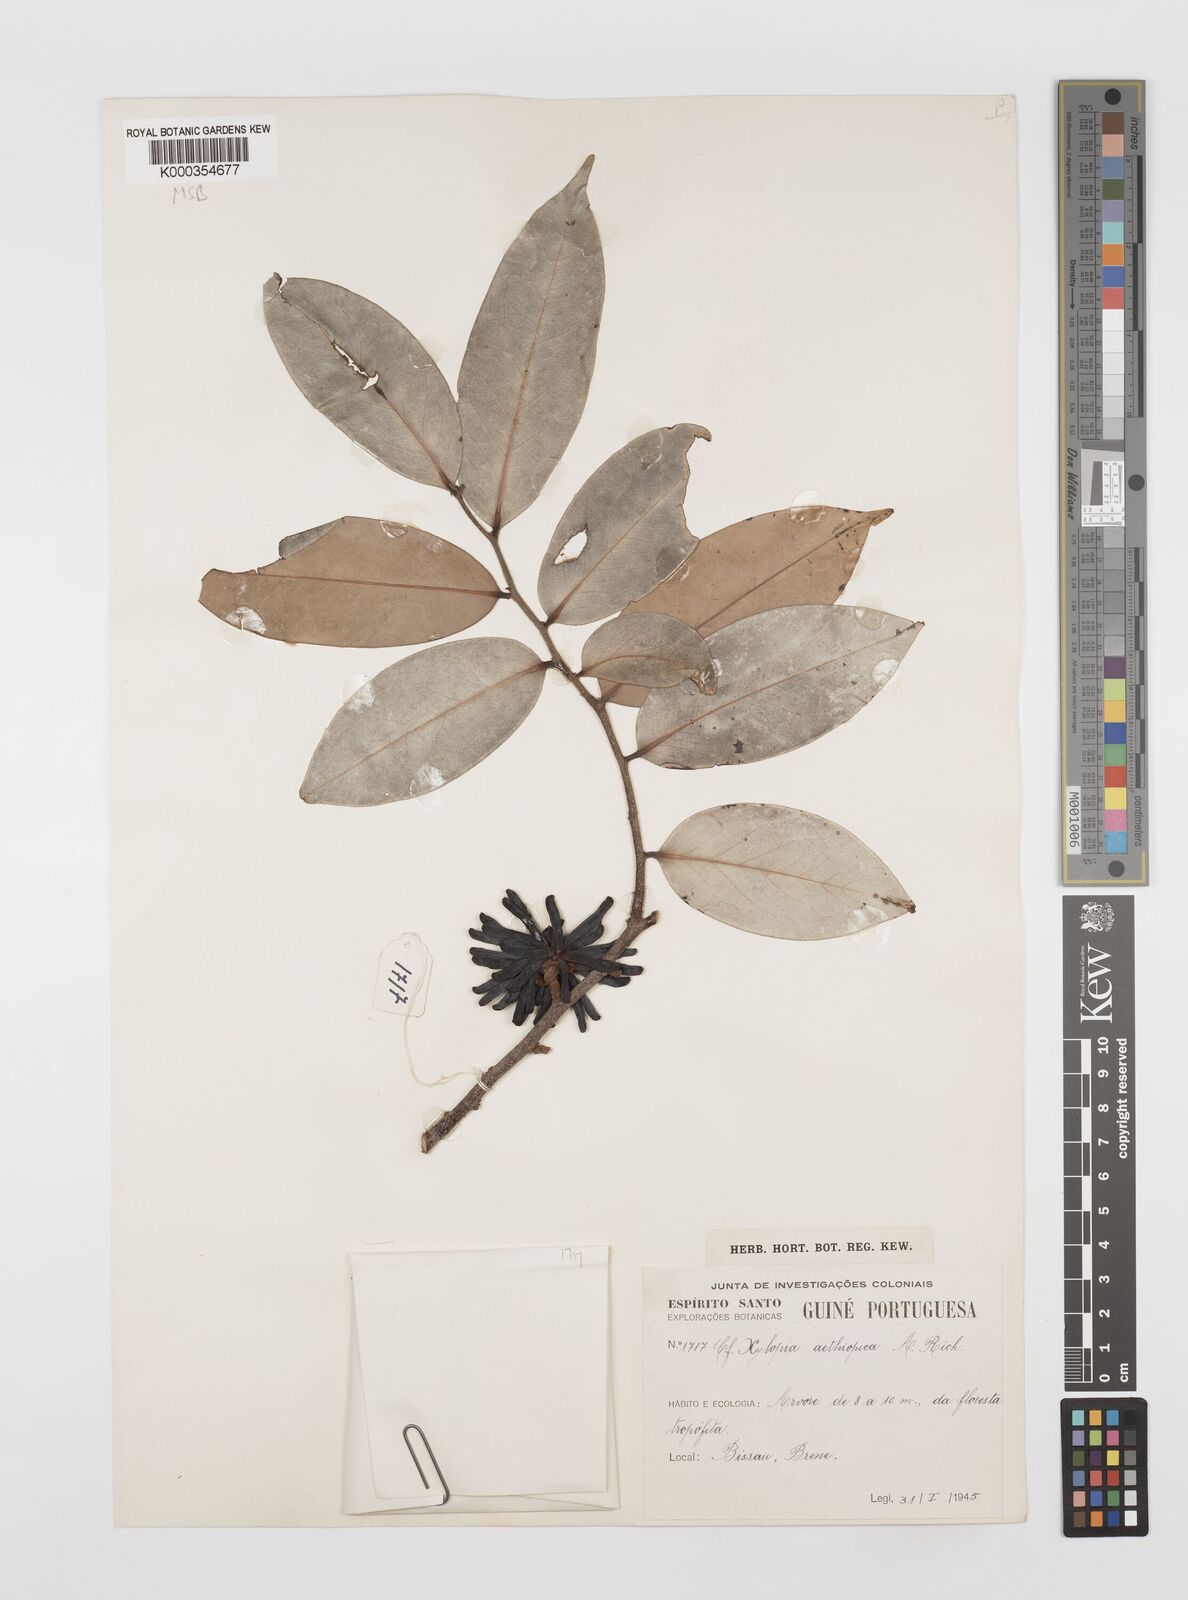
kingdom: Plantae
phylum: Tracheophyta
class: Magnoliopsida
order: Magnoliales
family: Annonaceae
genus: Xylopia
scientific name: Xylopia aethiopica
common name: Ethiopian-pepper
